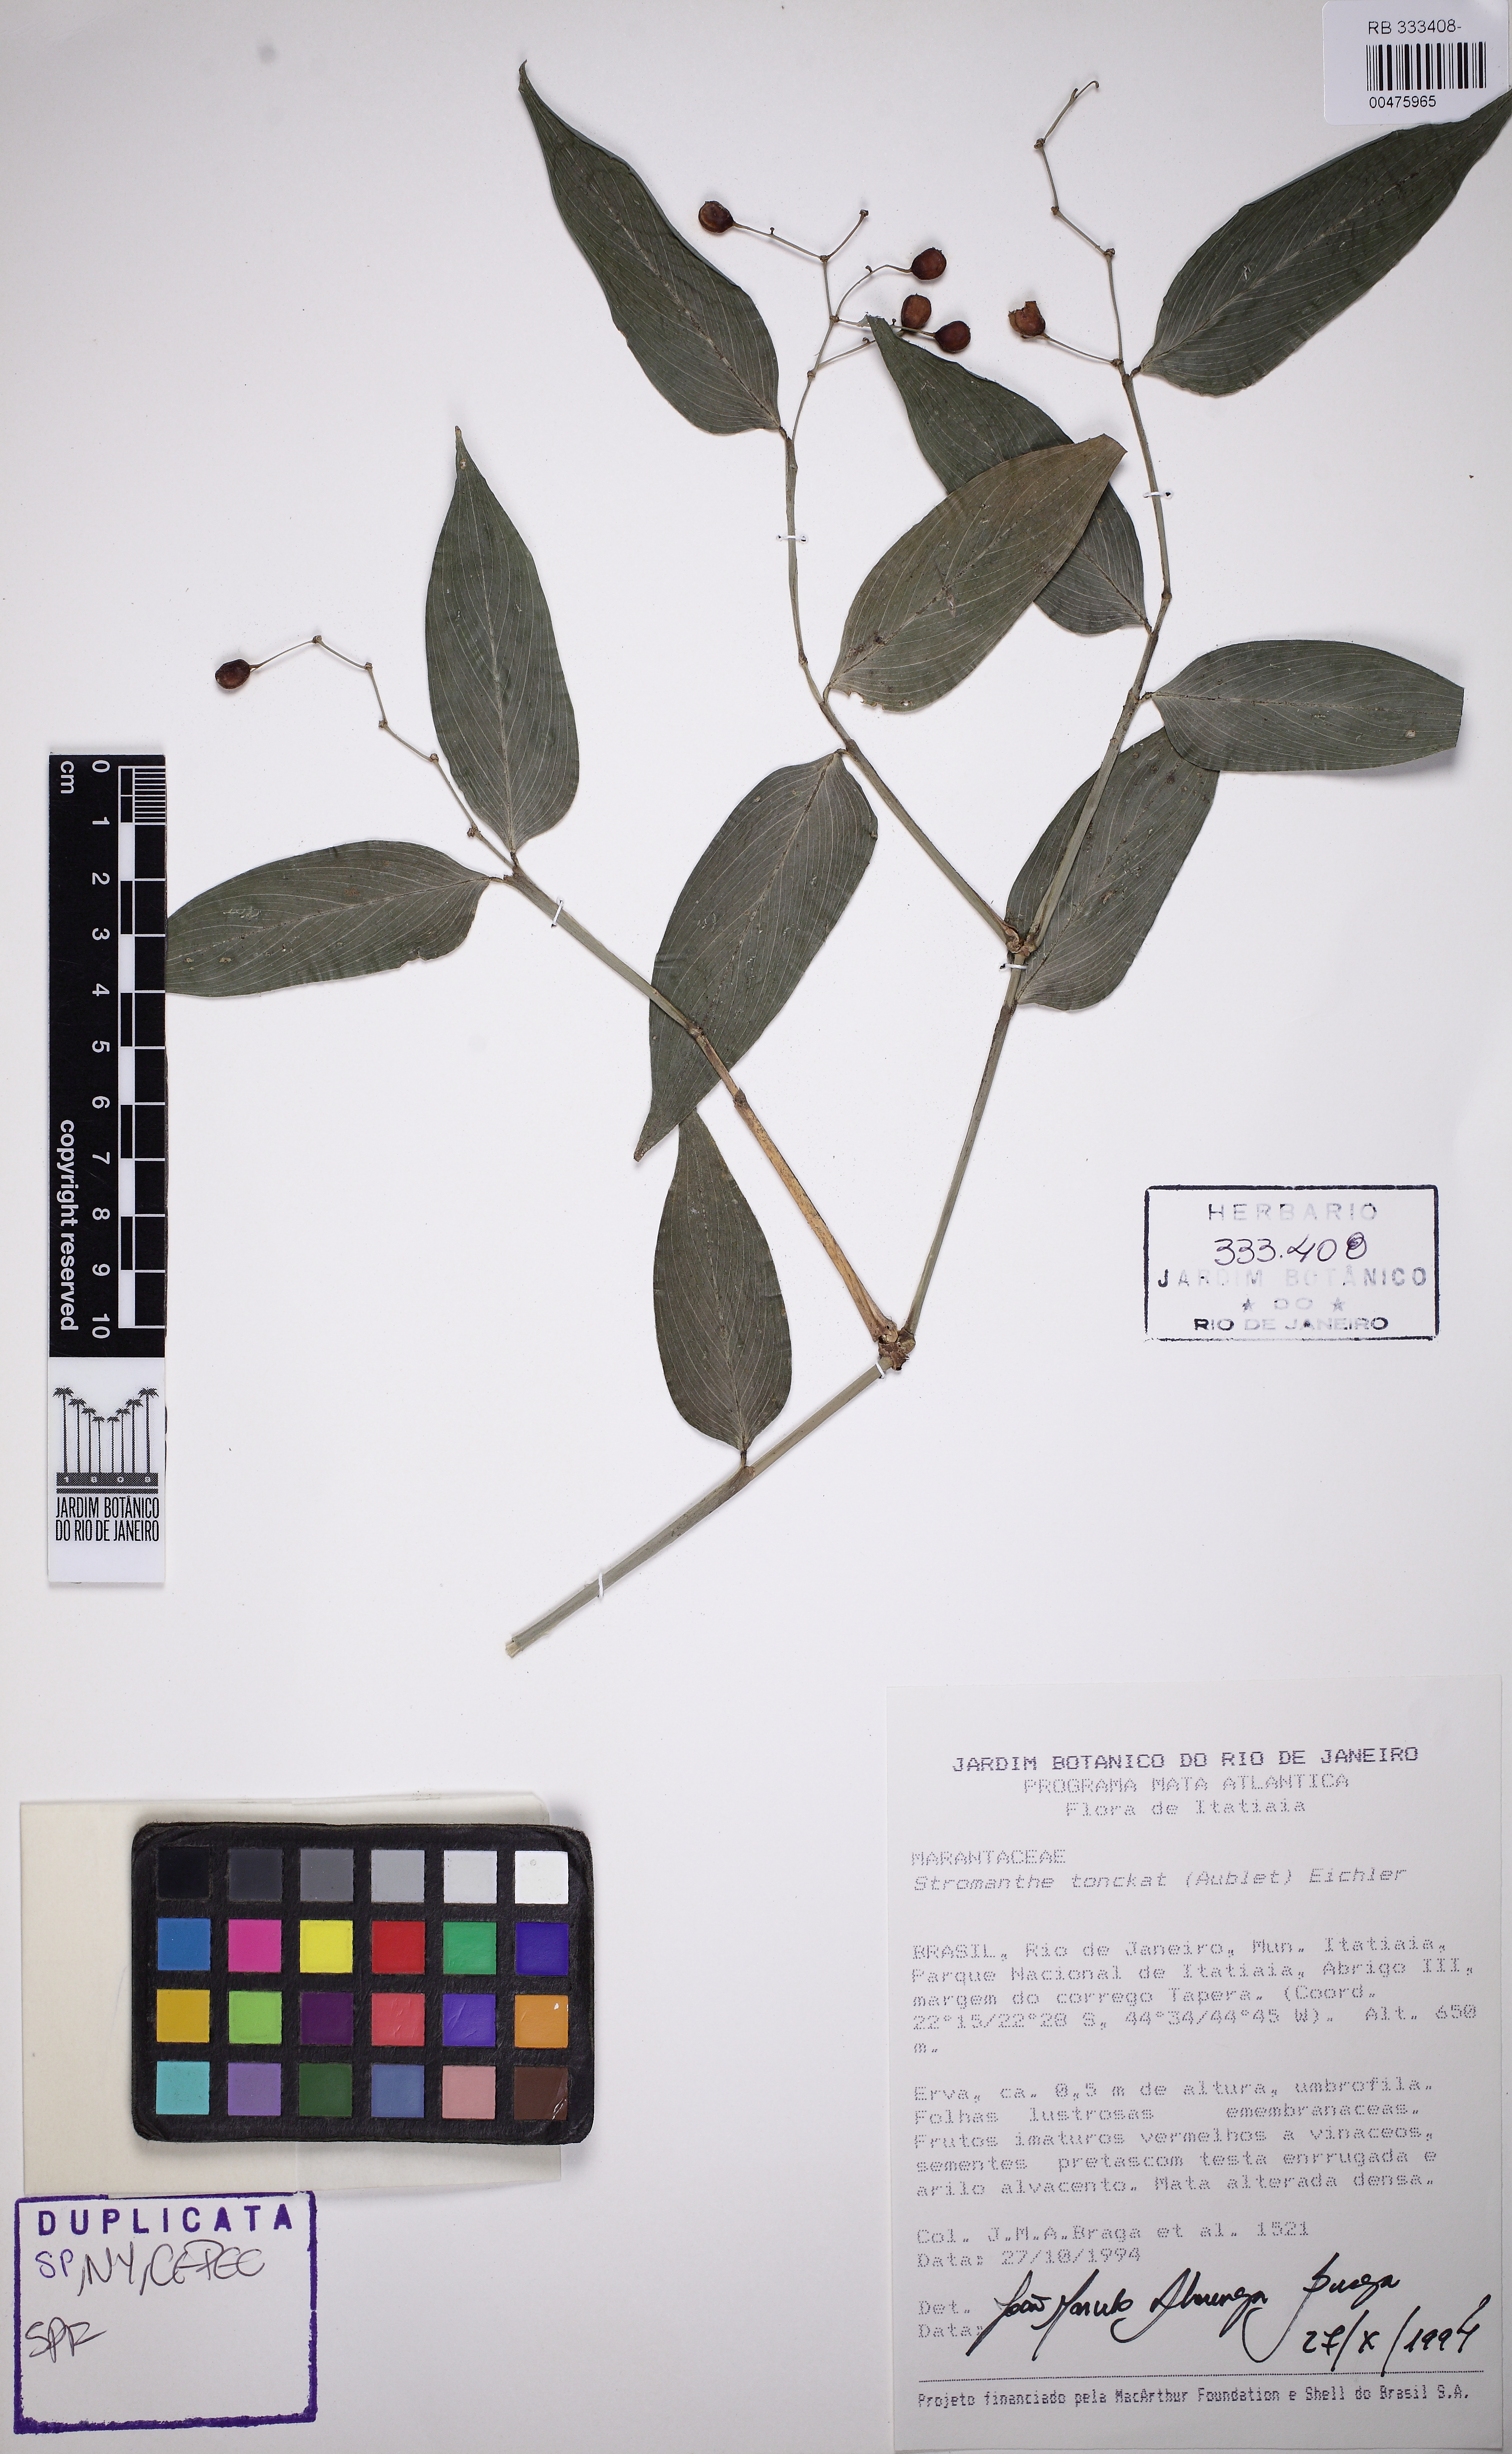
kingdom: Plantae
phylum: Tracheophyta
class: Liliopsida
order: Zingiberales
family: Marantaceae
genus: Stromanthe
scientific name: Stromanthe tonckat
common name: Stromanthe
